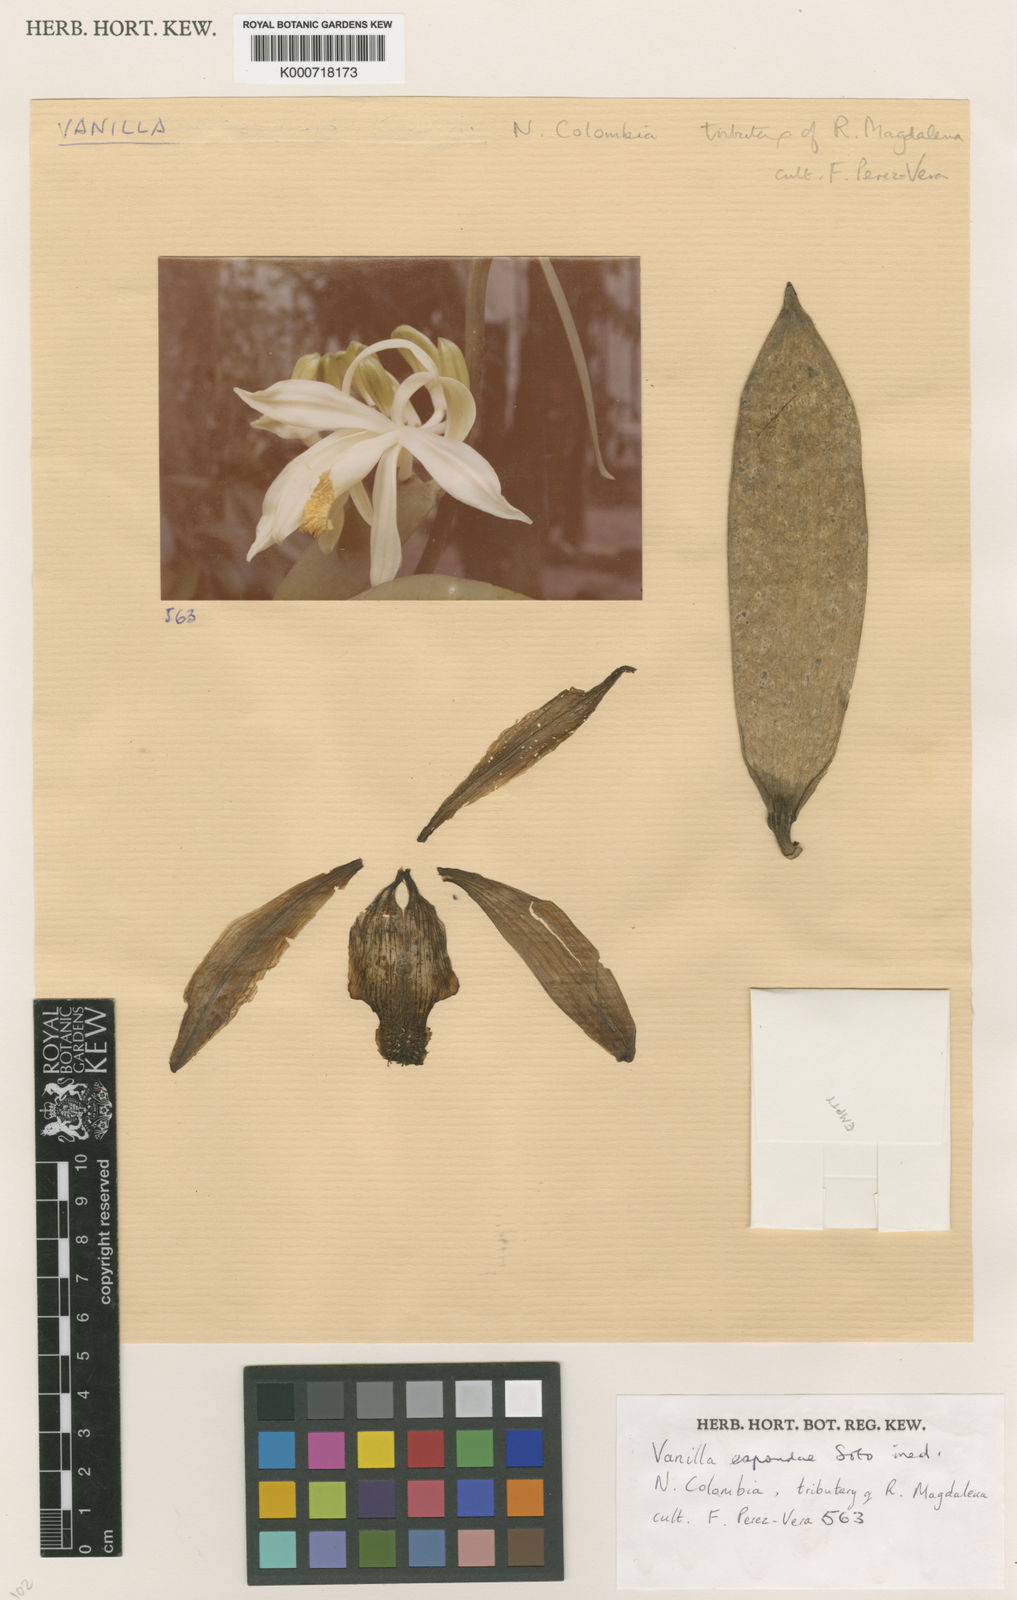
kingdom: Plantae
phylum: Tracheophyta
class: Liliopsida
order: Asparagales
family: Orchidaceae
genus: Vanilla
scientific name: Vanilla espondae
